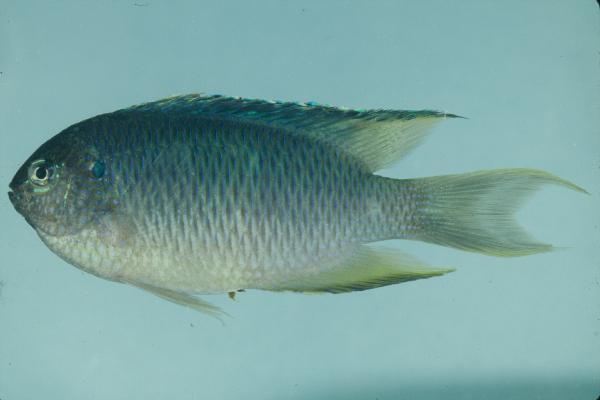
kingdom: Animalia
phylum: Chordata
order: Perciformes
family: Pomacentridae
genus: Pomacentrus
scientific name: Pomacentrus pavo
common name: Sapphire damsel
